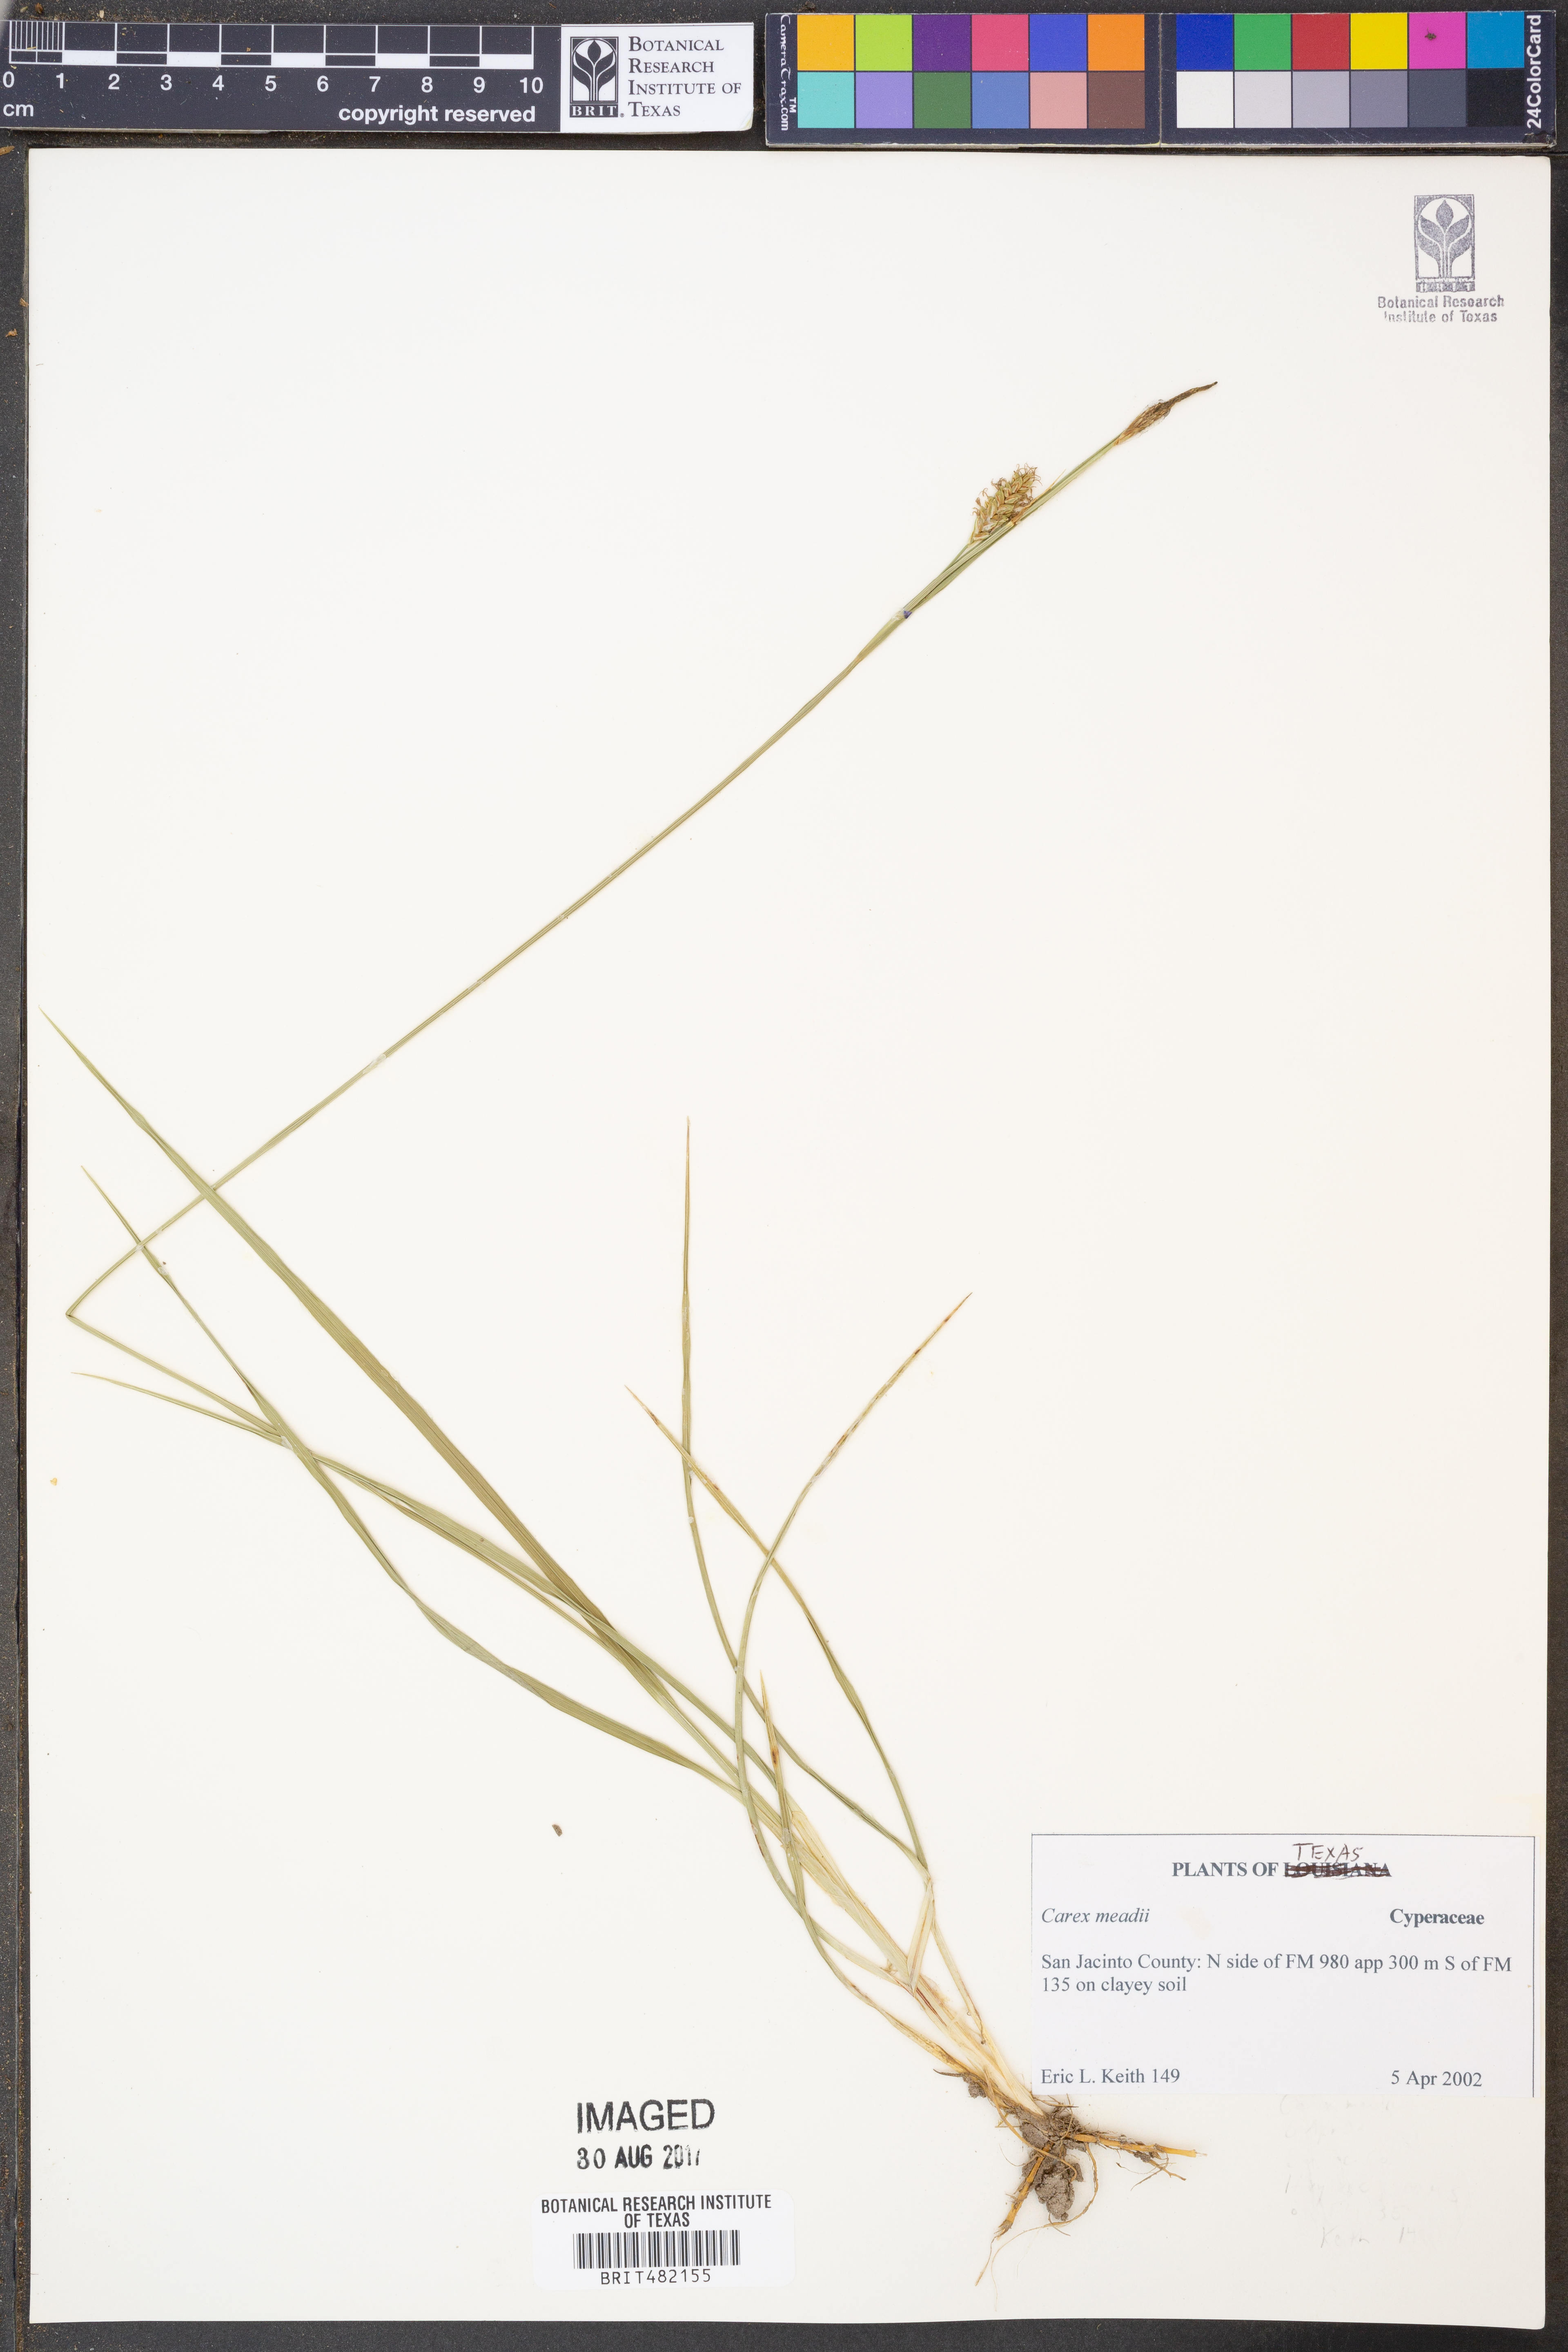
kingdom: Plantae
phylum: Tracheophyta
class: Liliopsida
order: Poales
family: Cyperaceae
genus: Carex
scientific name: Carex meadii
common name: Mead's sedge
